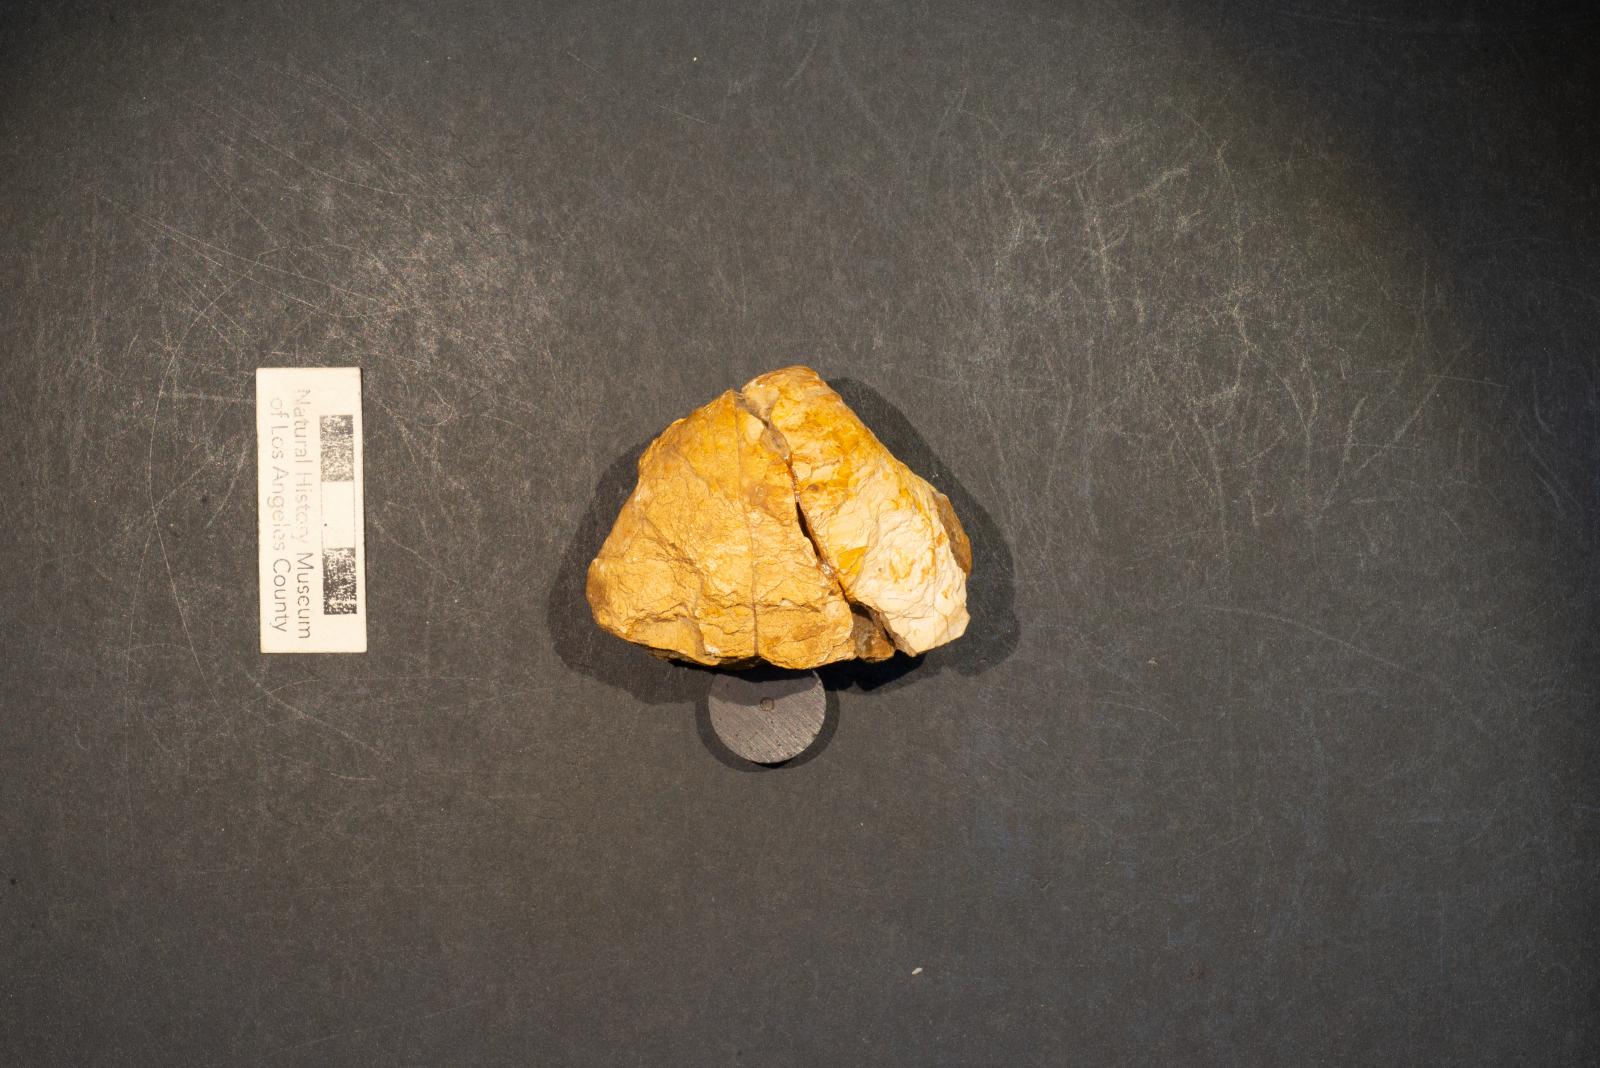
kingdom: Animalia
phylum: Mollusca
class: Bivalvia
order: Venerida
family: Veneridae
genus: Calva
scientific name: Calva crassa
